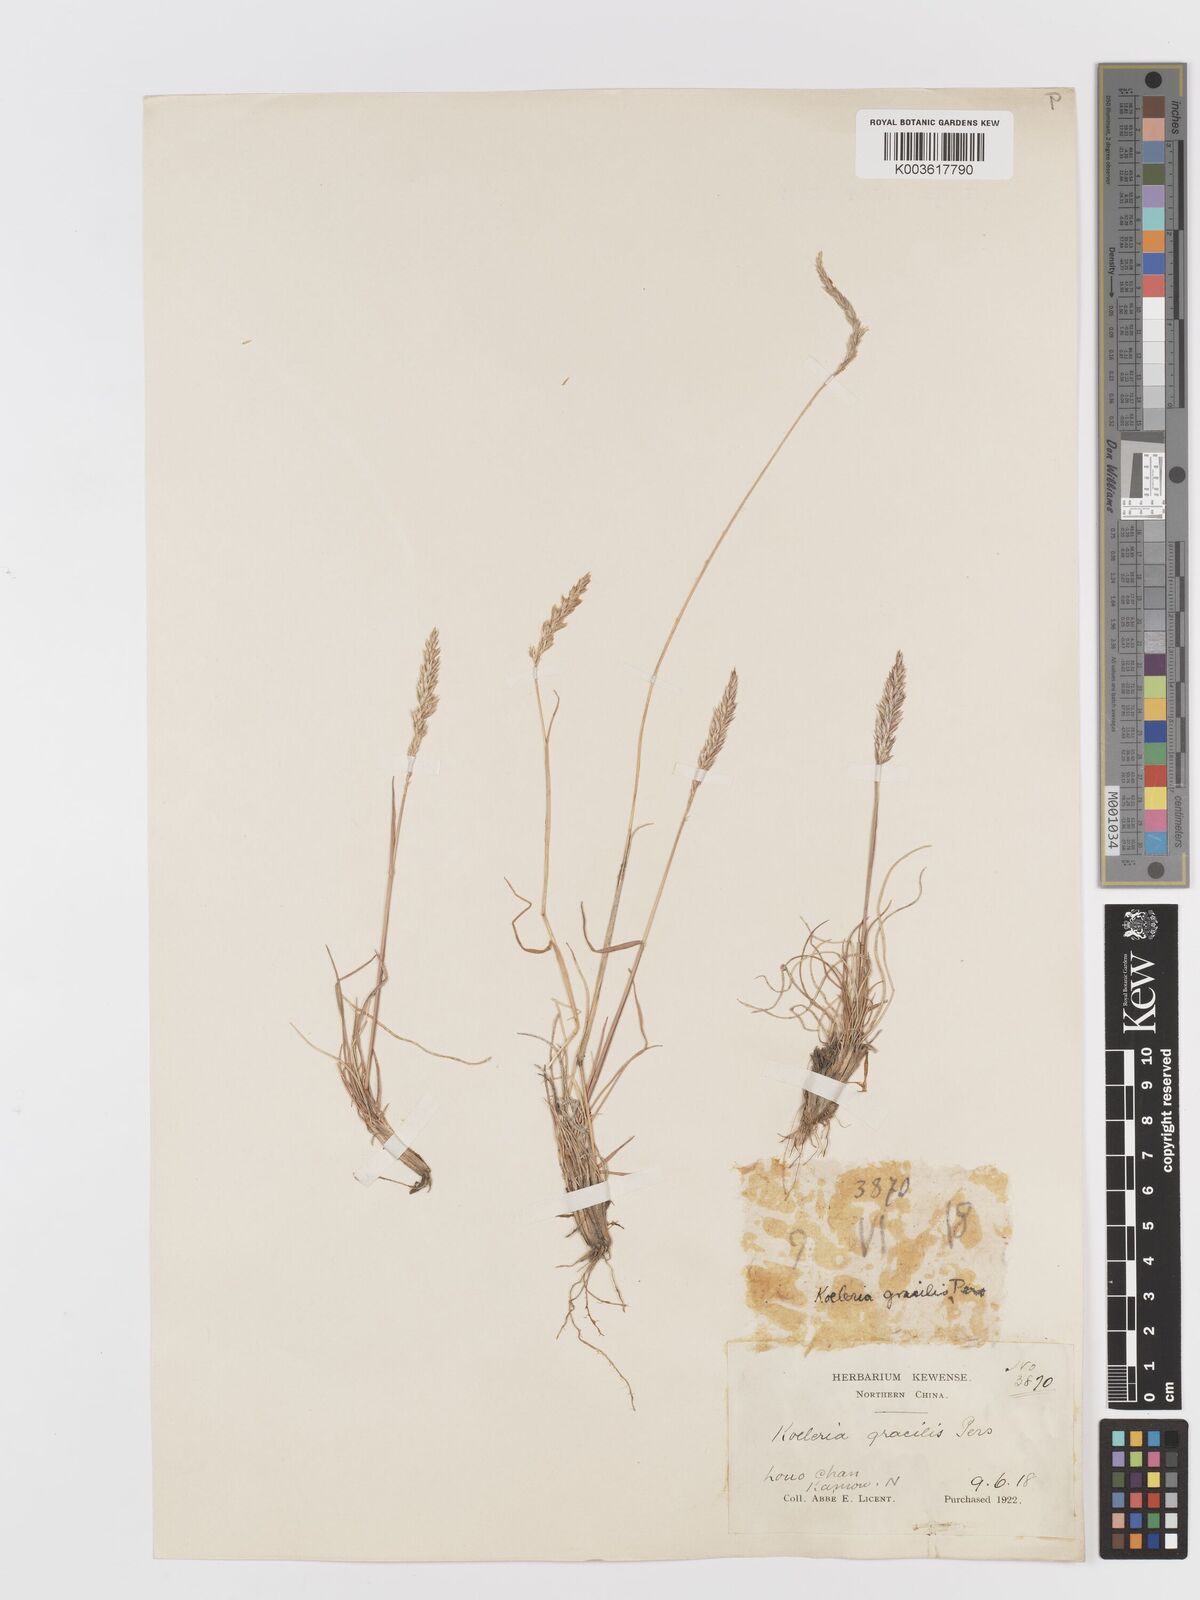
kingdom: Plantae
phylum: Tracheophyta
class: Liliopsida
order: Poales
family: Poaceae
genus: Koeleria
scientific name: Koeleria macrantha
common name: Crested hair-grass
